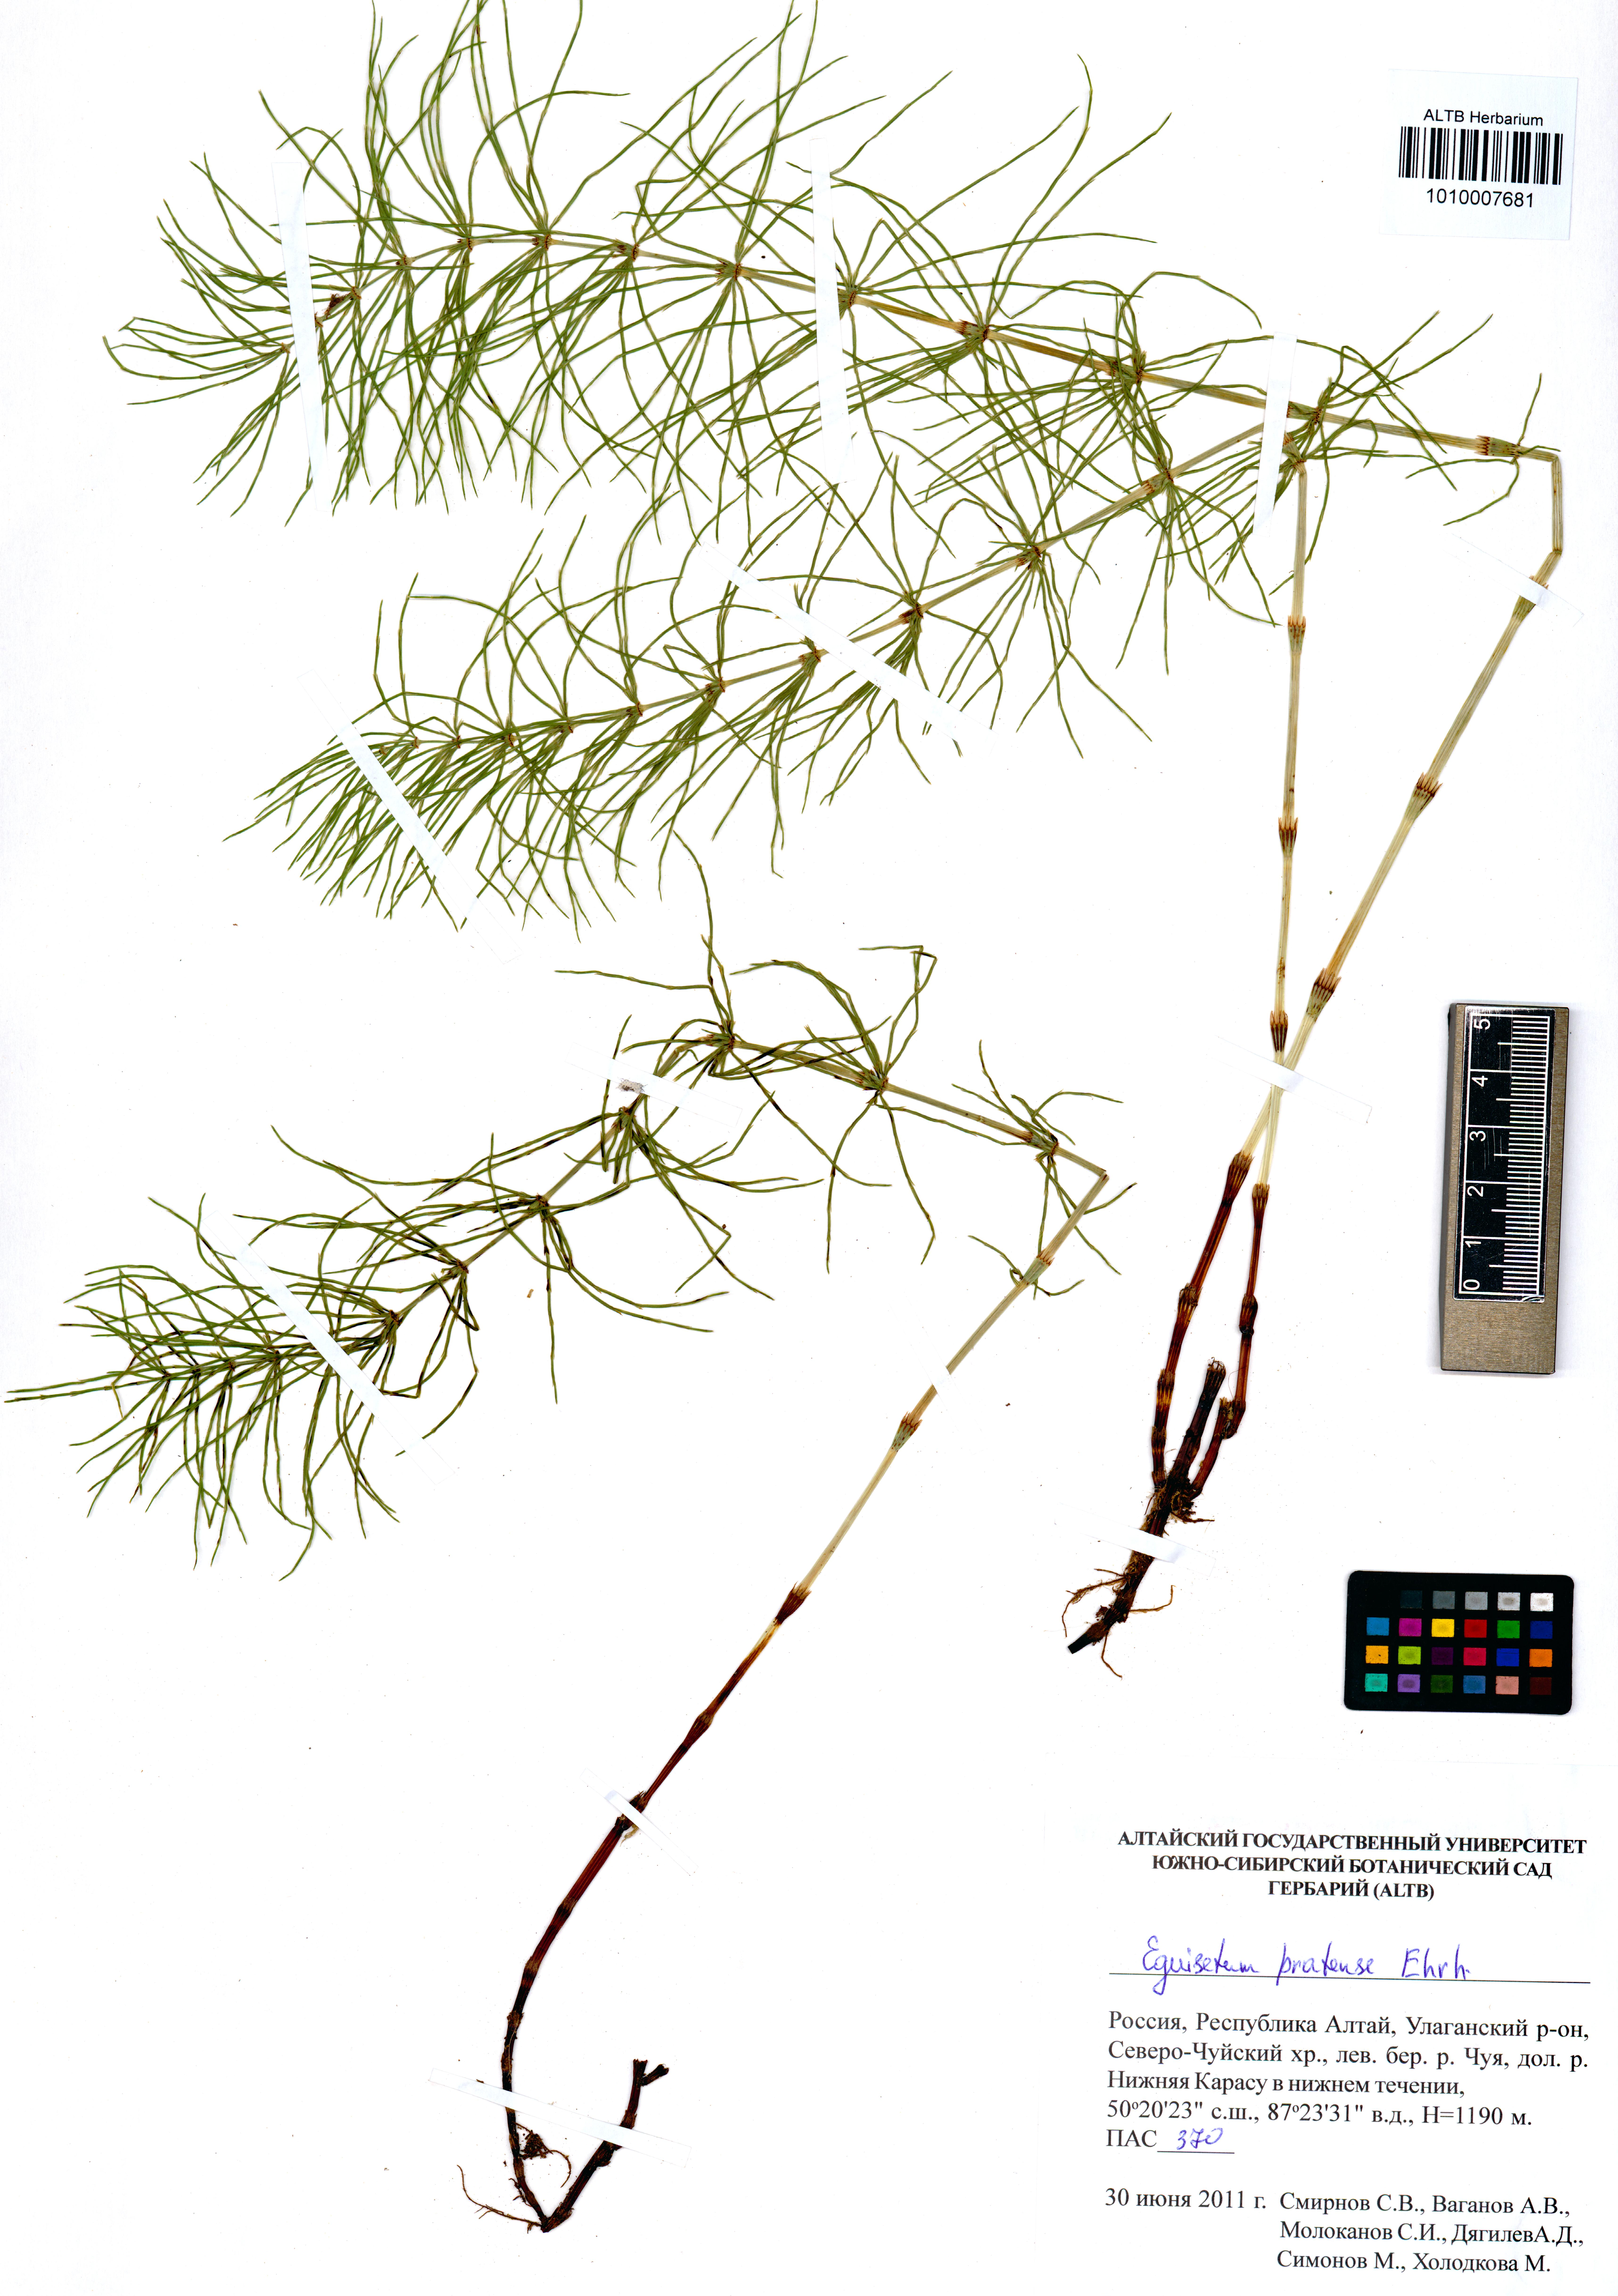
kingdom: Plantae
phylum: Tracheophyta
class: Polypodiopsida
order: Equisetales
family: Equisetaceae
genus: Equisetum
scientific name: Equisetum pratense
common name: Meadow horsetail
